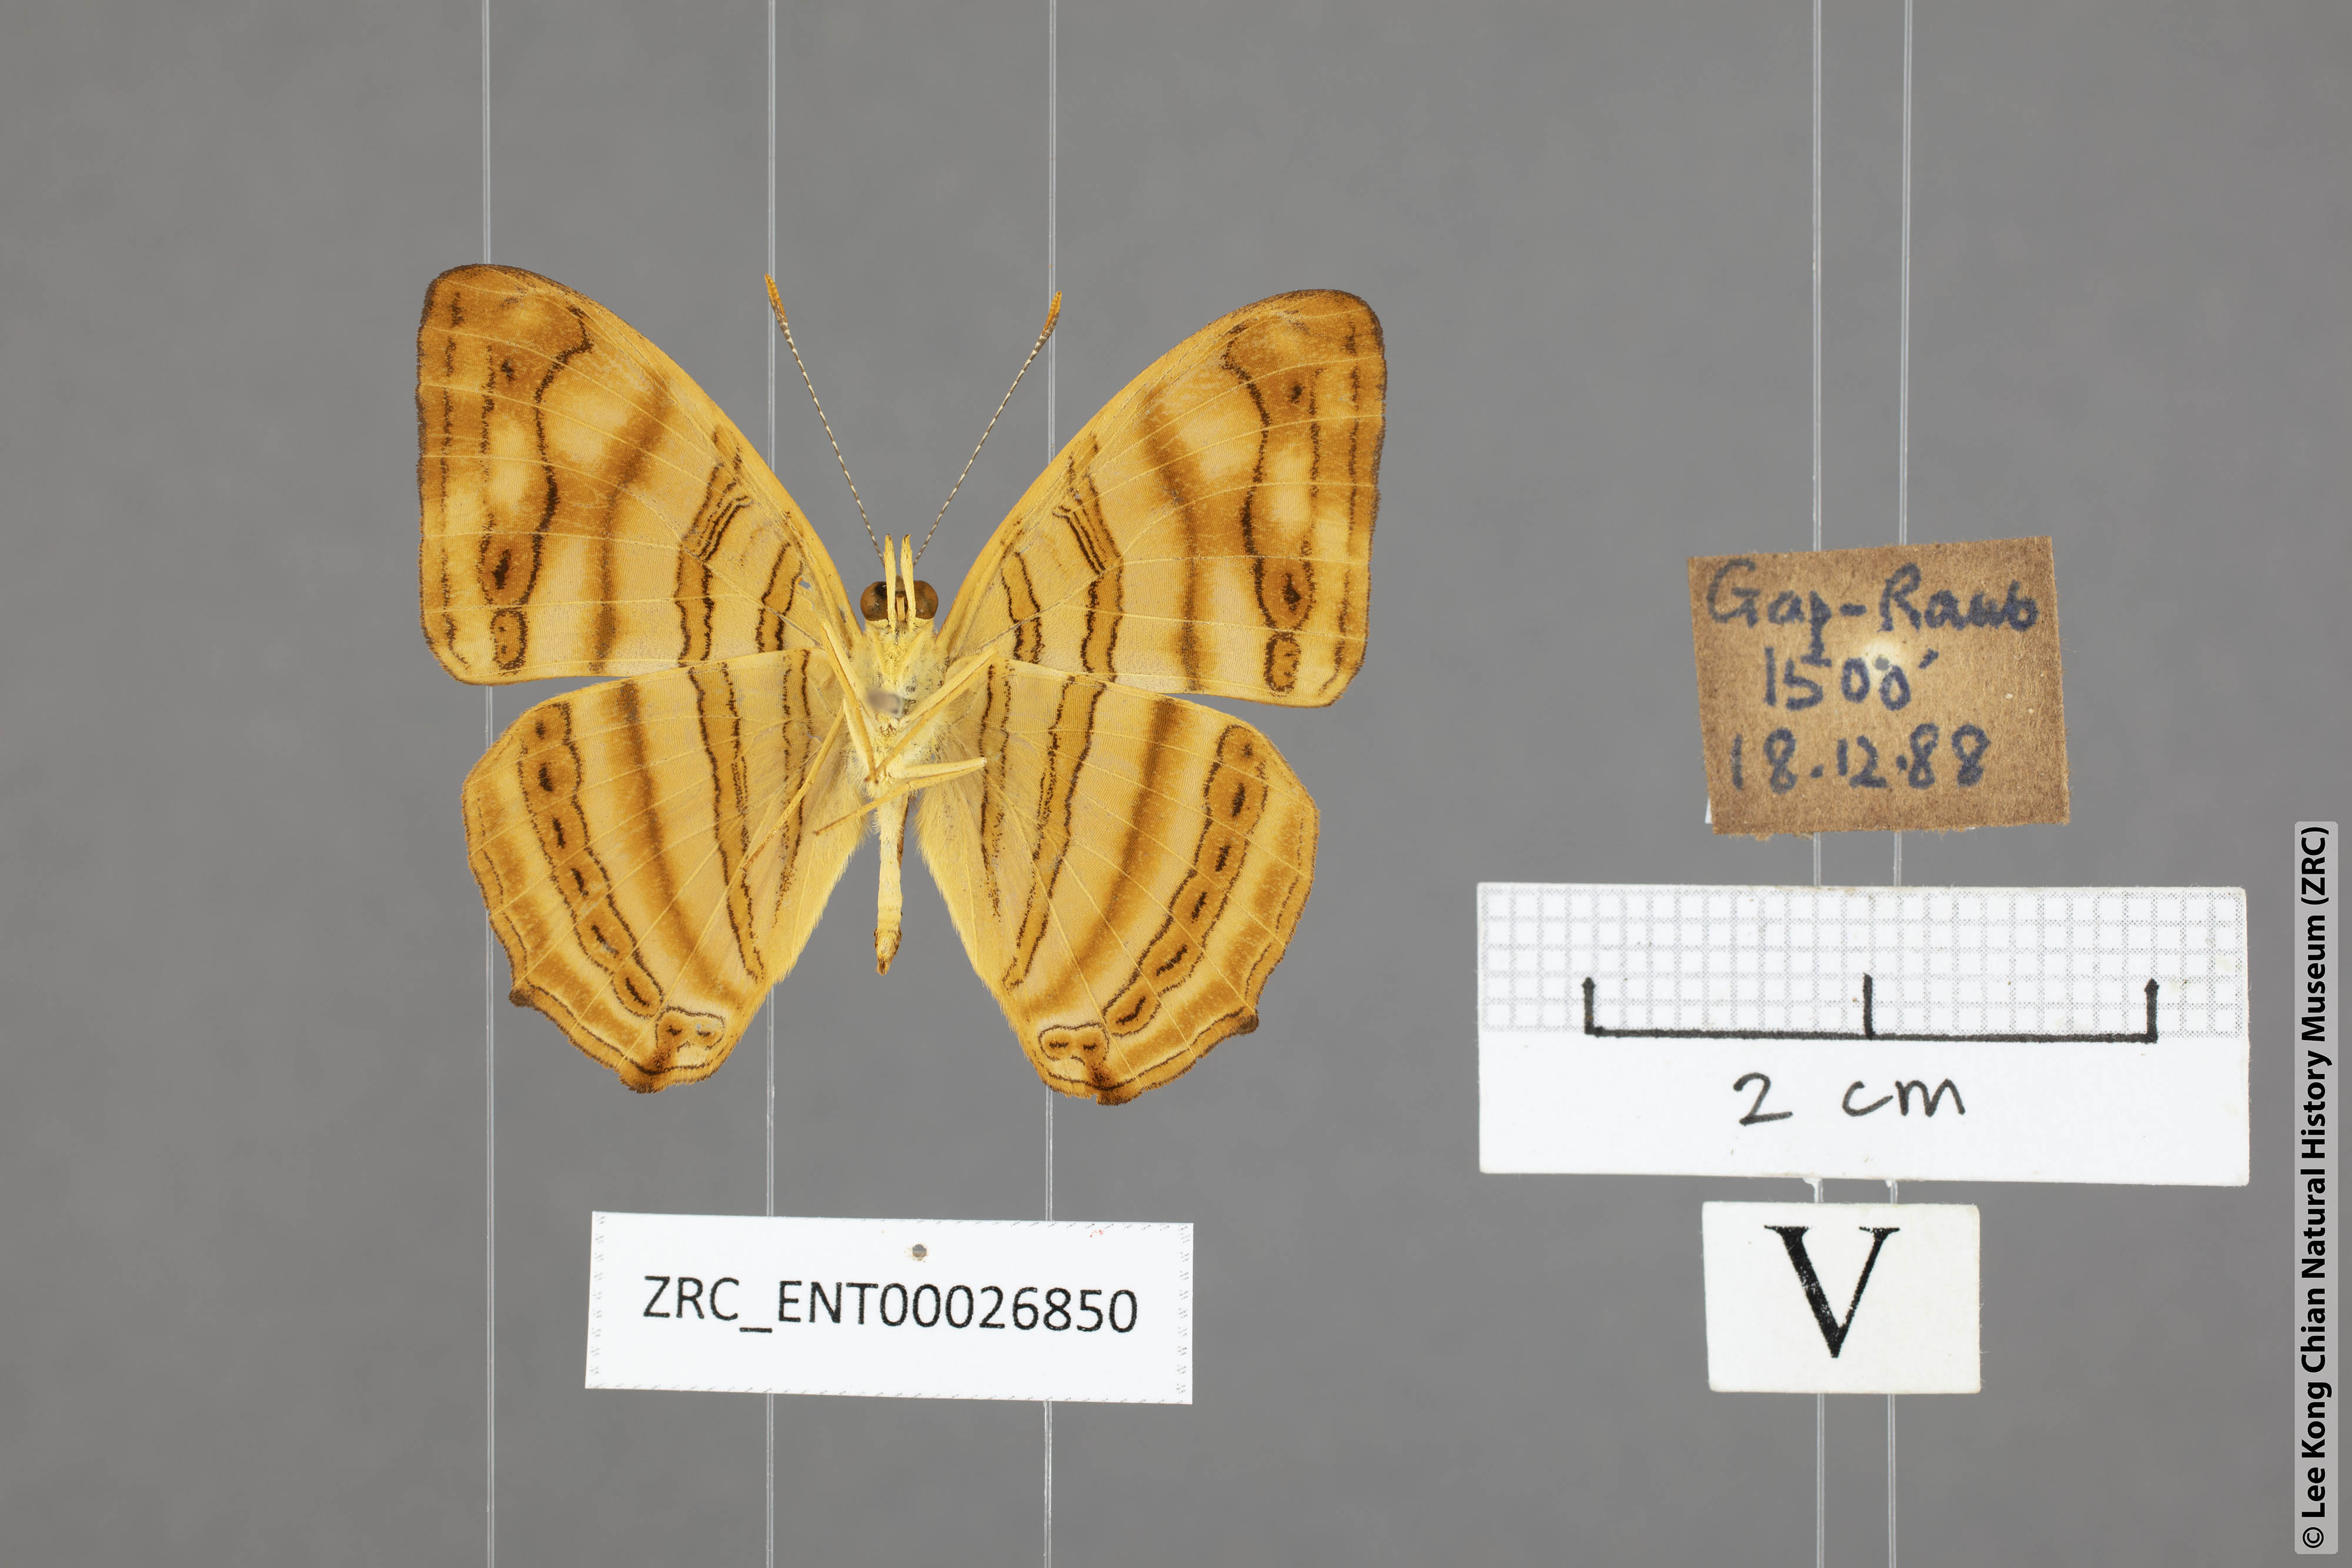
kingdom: Animalia
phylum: Arthropoda
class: Insecta
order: Lepidoptera
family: Nymphalidae
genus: Chersonesia
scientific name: Chersonesia rahria
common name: Wavy maplet
